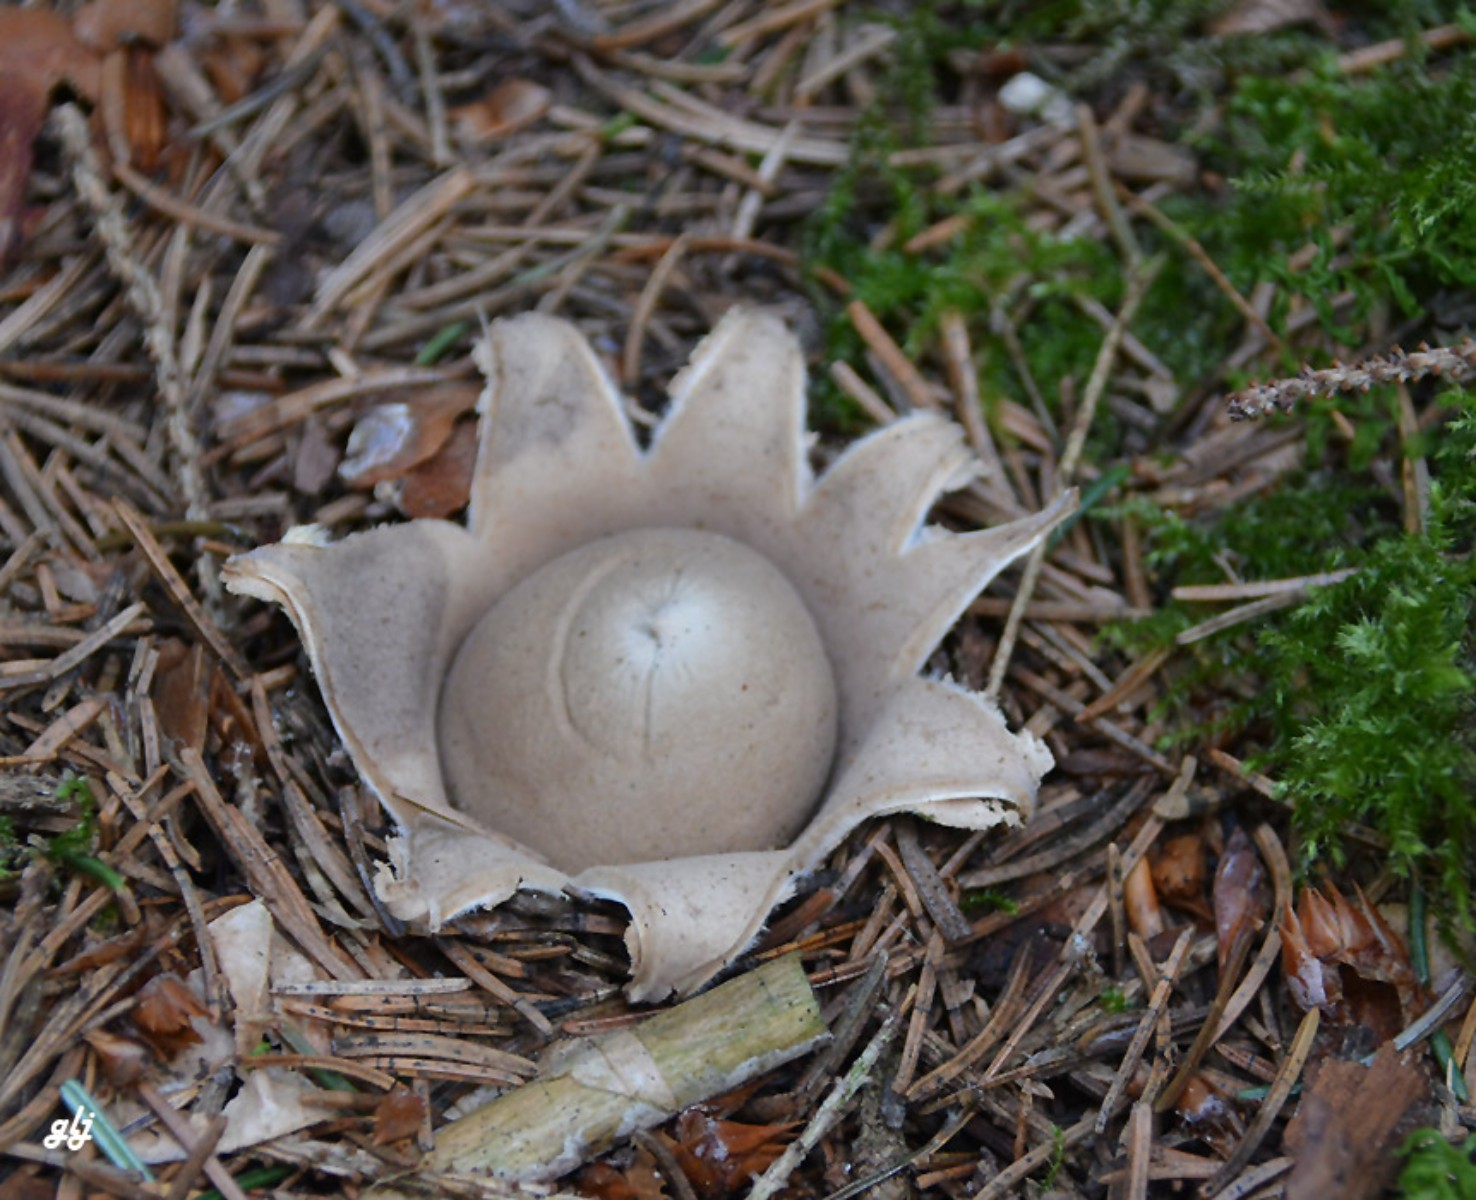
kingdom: Fungi
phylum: Basidiomycota
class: Agaricomycetes
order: Geastrales
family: Geastraceae
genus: Geastrum
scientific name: Geastrum fimbriatum
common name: frynset stjernebold
